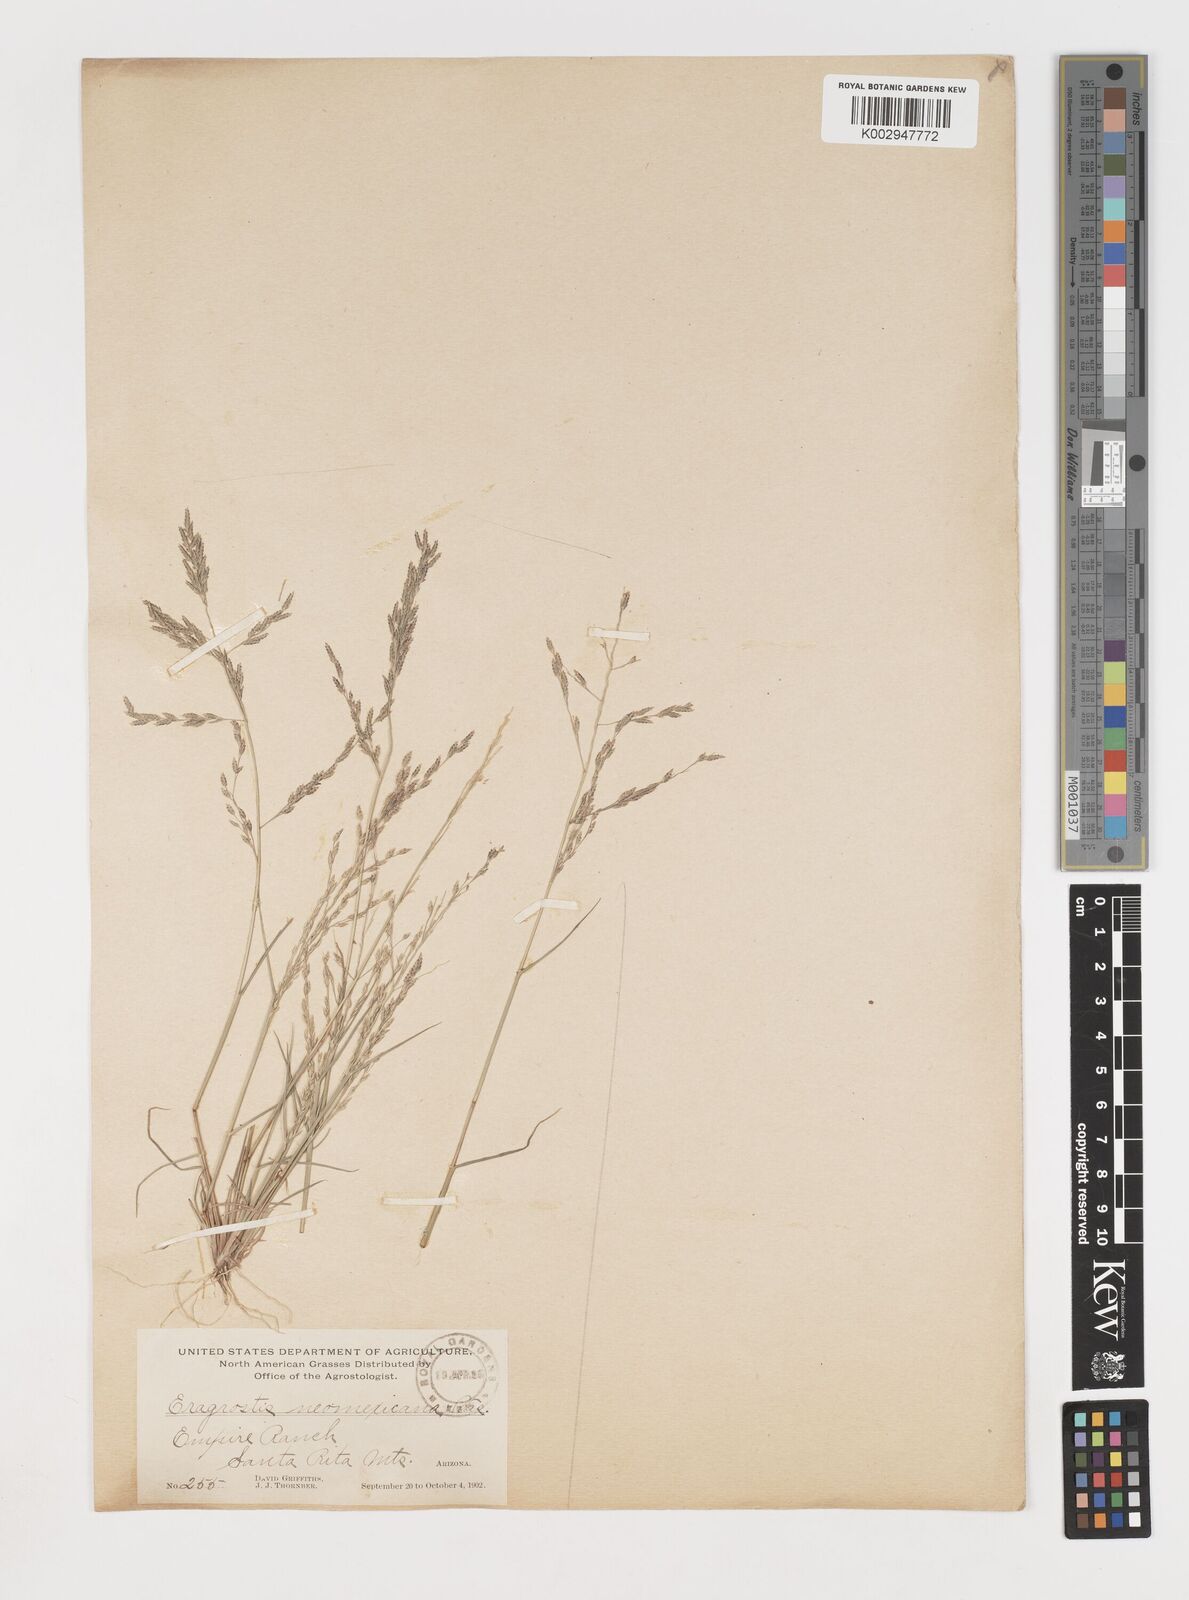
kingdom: Plantae
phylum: Tracheophyta
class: Liliopsida
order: Poales
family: Poaceae
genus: Eragrostis
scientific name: Eragrostis pectinacea
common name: Tufted lovegrass
